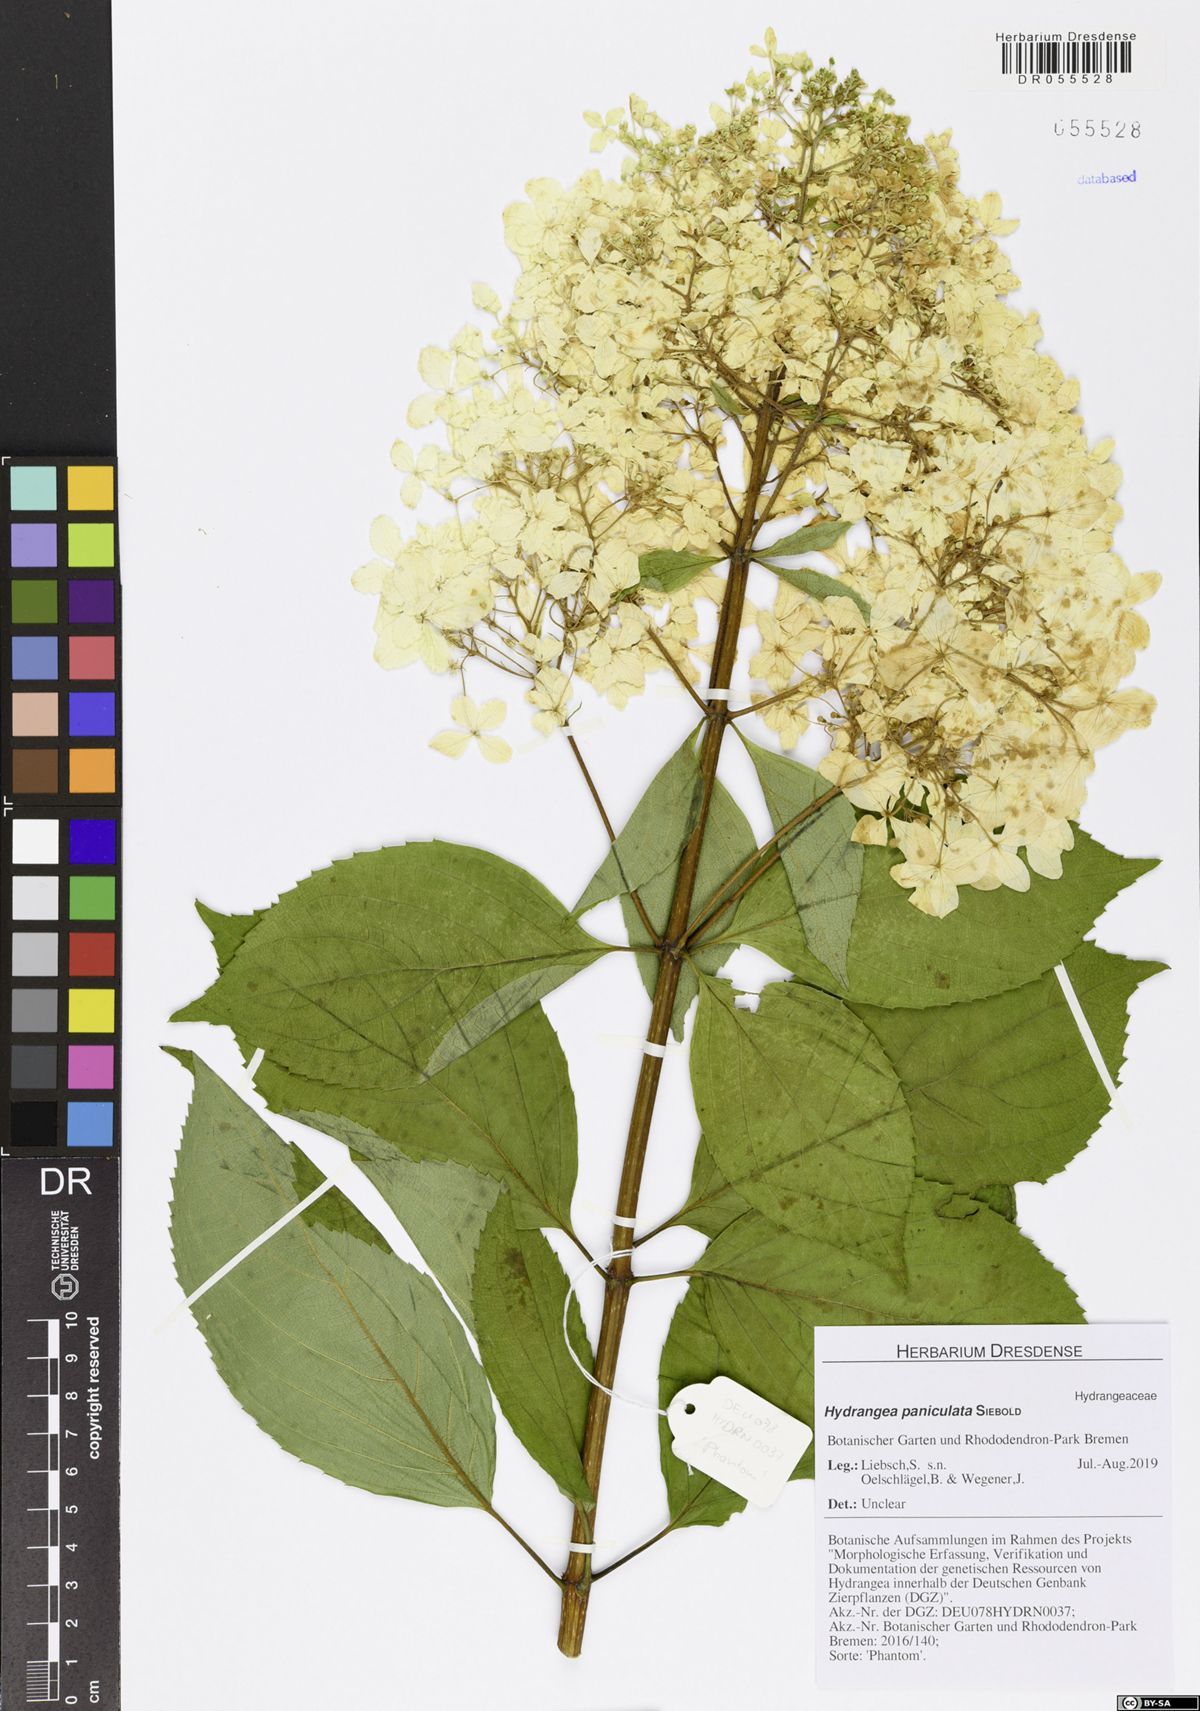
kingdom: Plantae
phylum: Tracheophyta
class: Magnoliopsida
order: Cornales
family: Hydrangeaceae
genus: Hydrangea
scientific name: Hydrangea paniculata
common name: Panicled hydrangea
